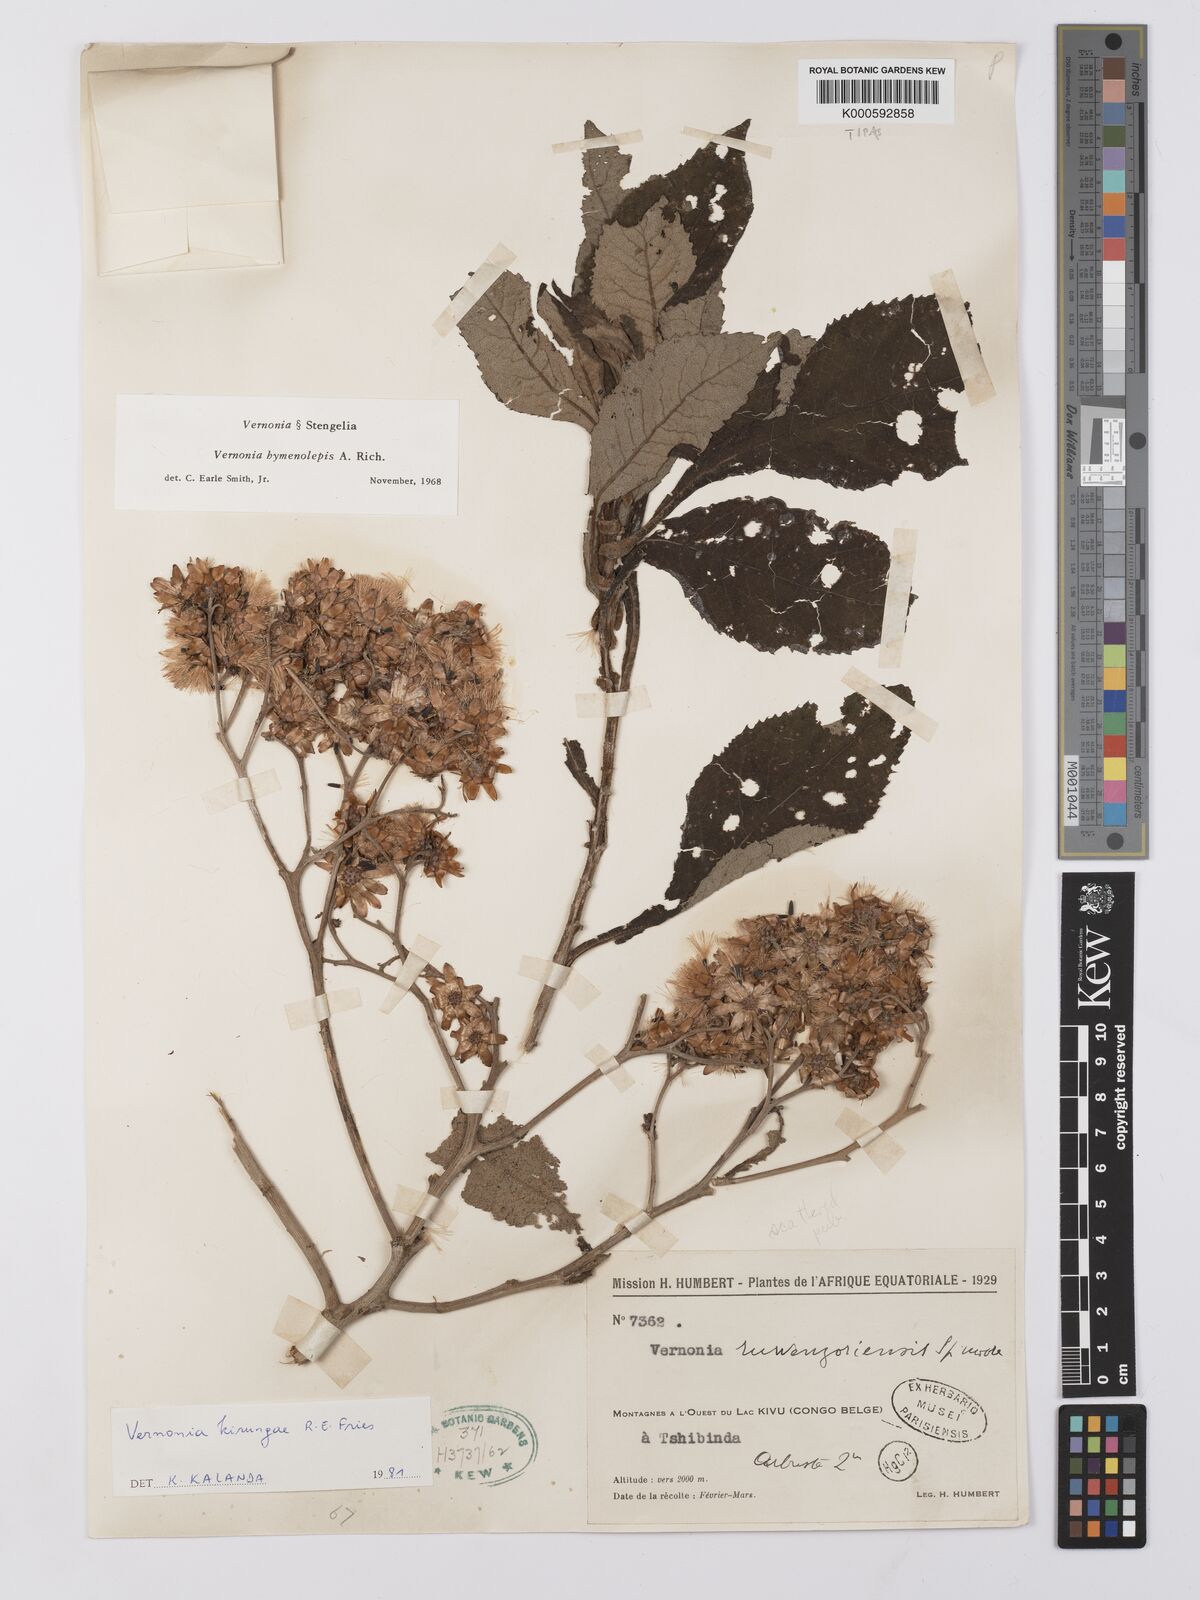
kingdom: Plantae
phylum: Tracheophyta
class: Magnoliopsida
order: Asterales
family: Asteraceae
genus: Baccharoides
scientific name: Baccharoides kirungae
